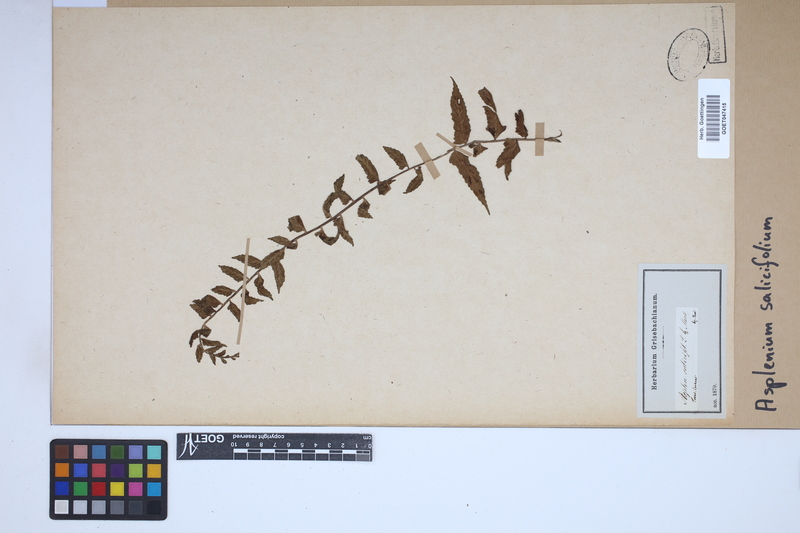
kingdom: Plantae
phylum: Tracheophyta
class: Polypodiopsida
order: Polypodiales
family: Aspleniaceae
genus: Asplenium
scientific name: Asplenium salicifolium
